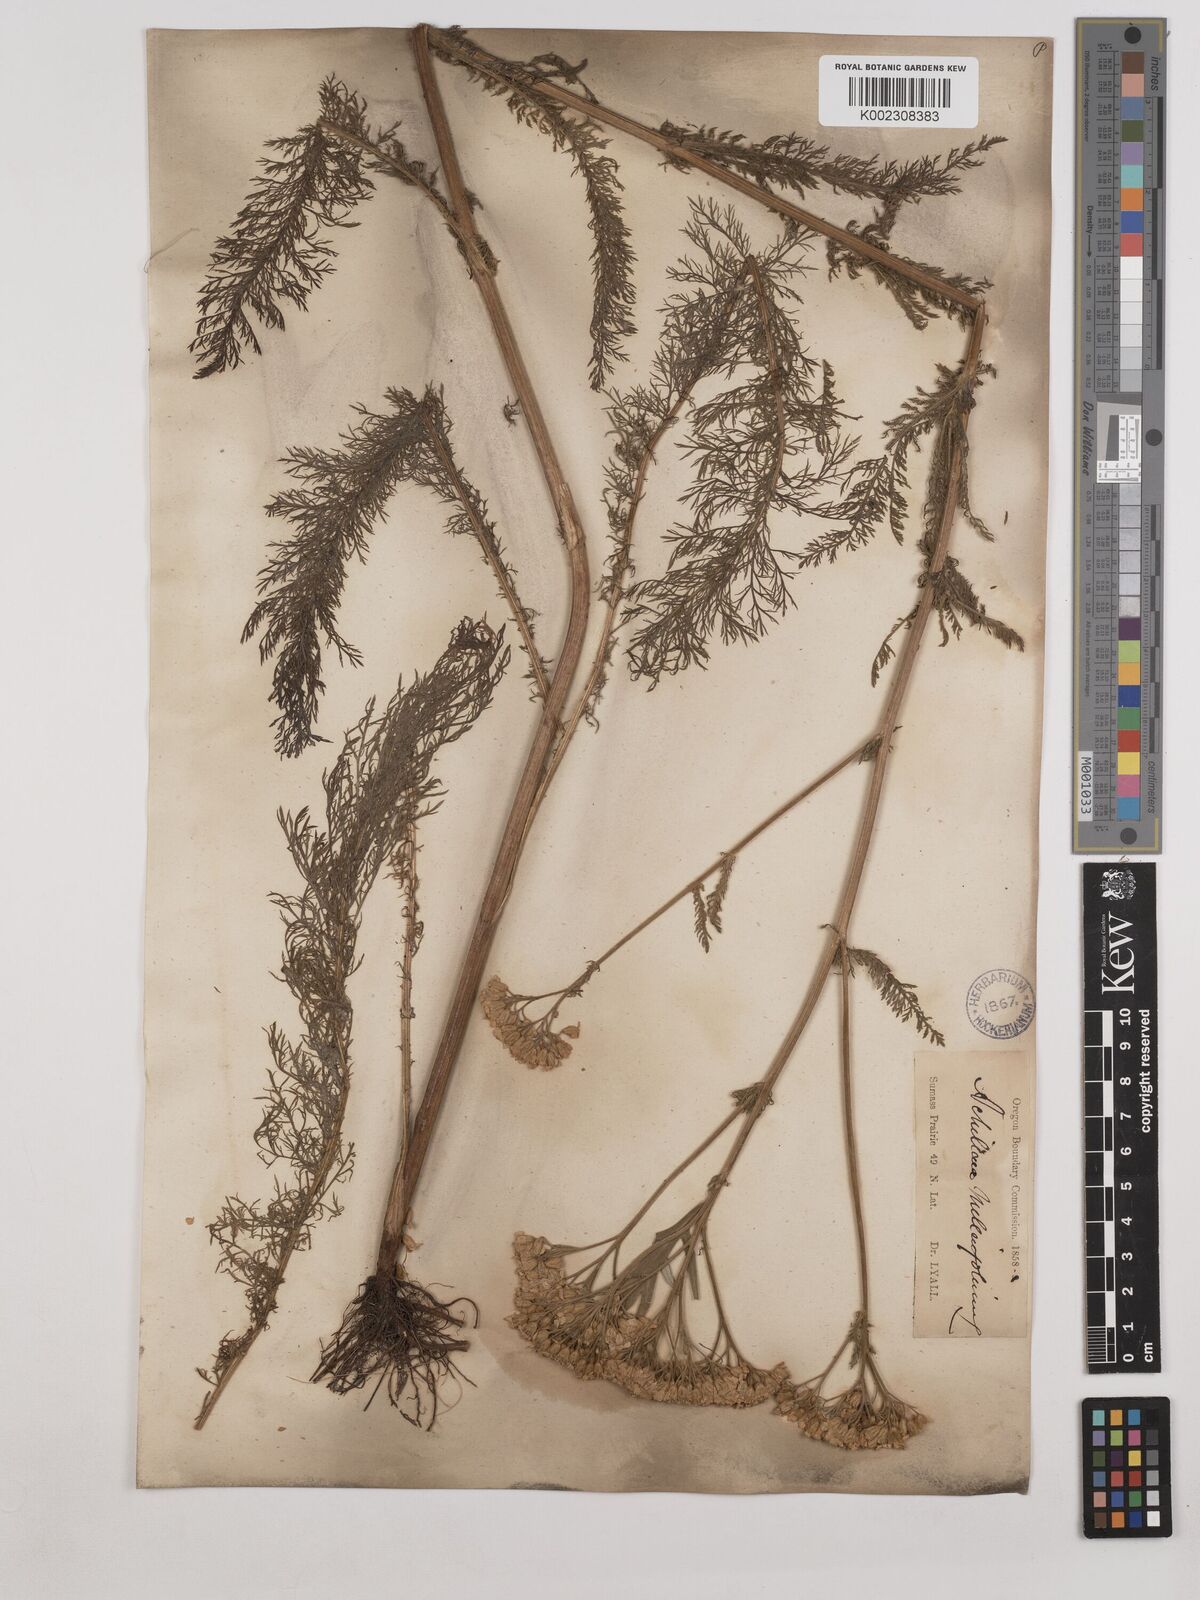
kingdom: Plantae
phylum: Tracheophyta
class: Magnoliopsida
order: Asterales
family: Asteraceae
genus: Achillea
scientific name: Achillea millefolium
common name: Yarrow
